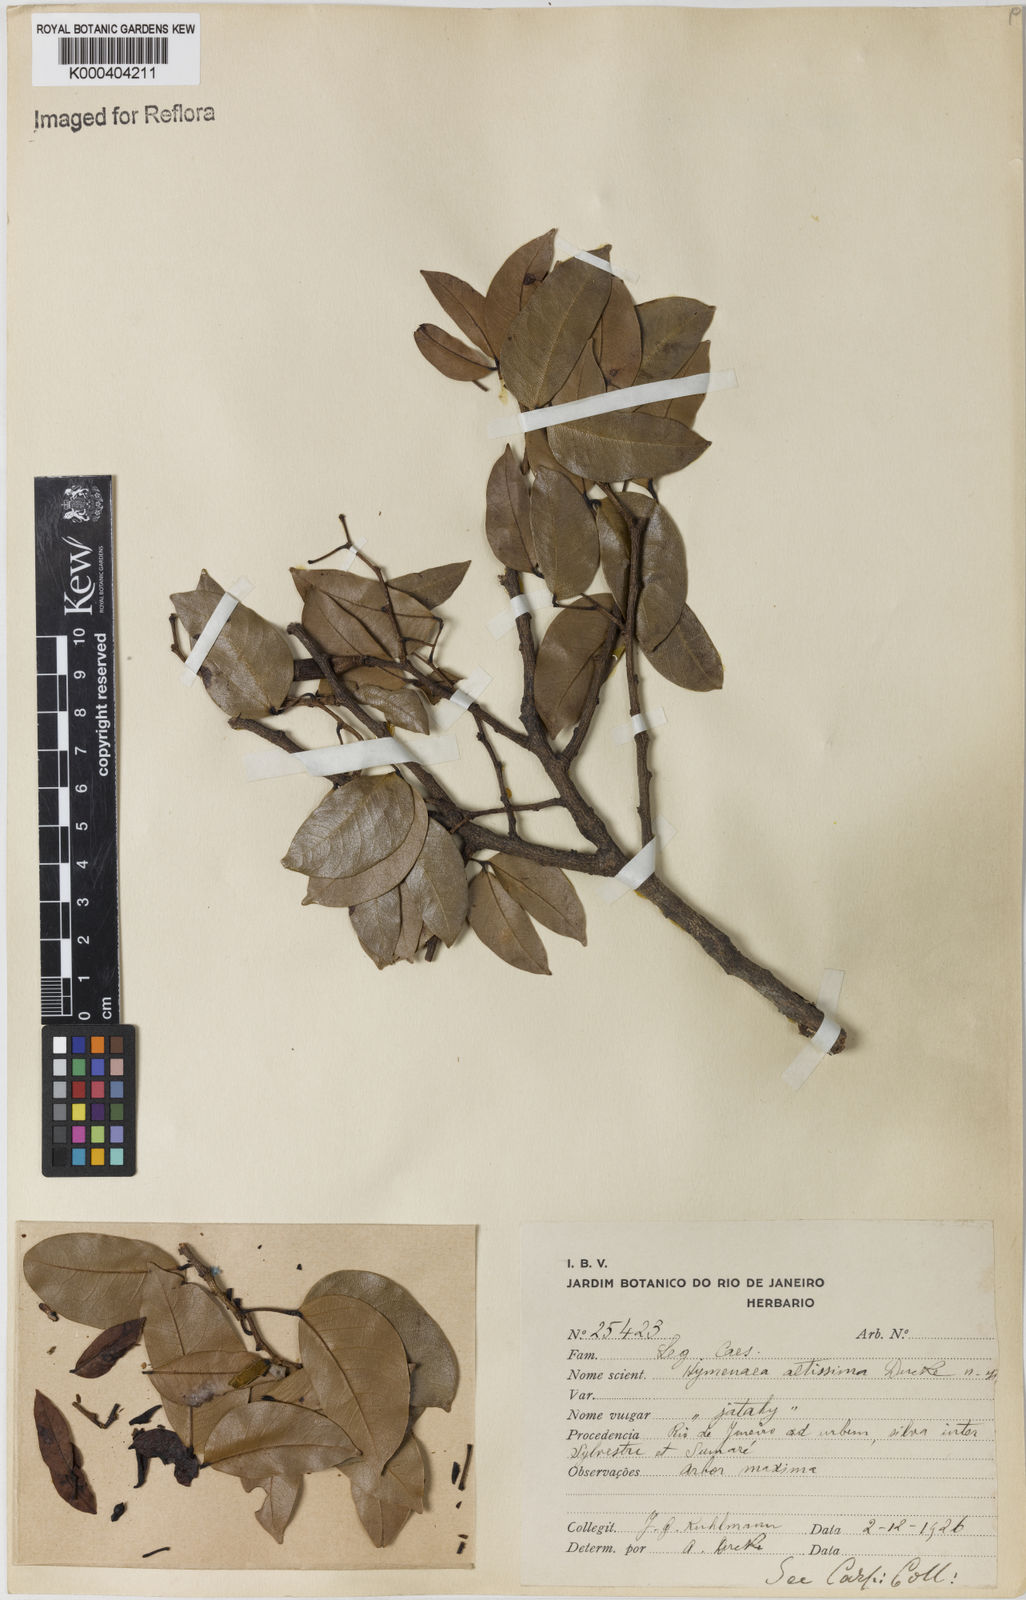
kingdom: Plantae
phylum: Tracheophyta
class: Magnoliopsida
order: Fabales
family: Fabaceae
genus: Hymenaea
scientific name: Hymenaea altissima
